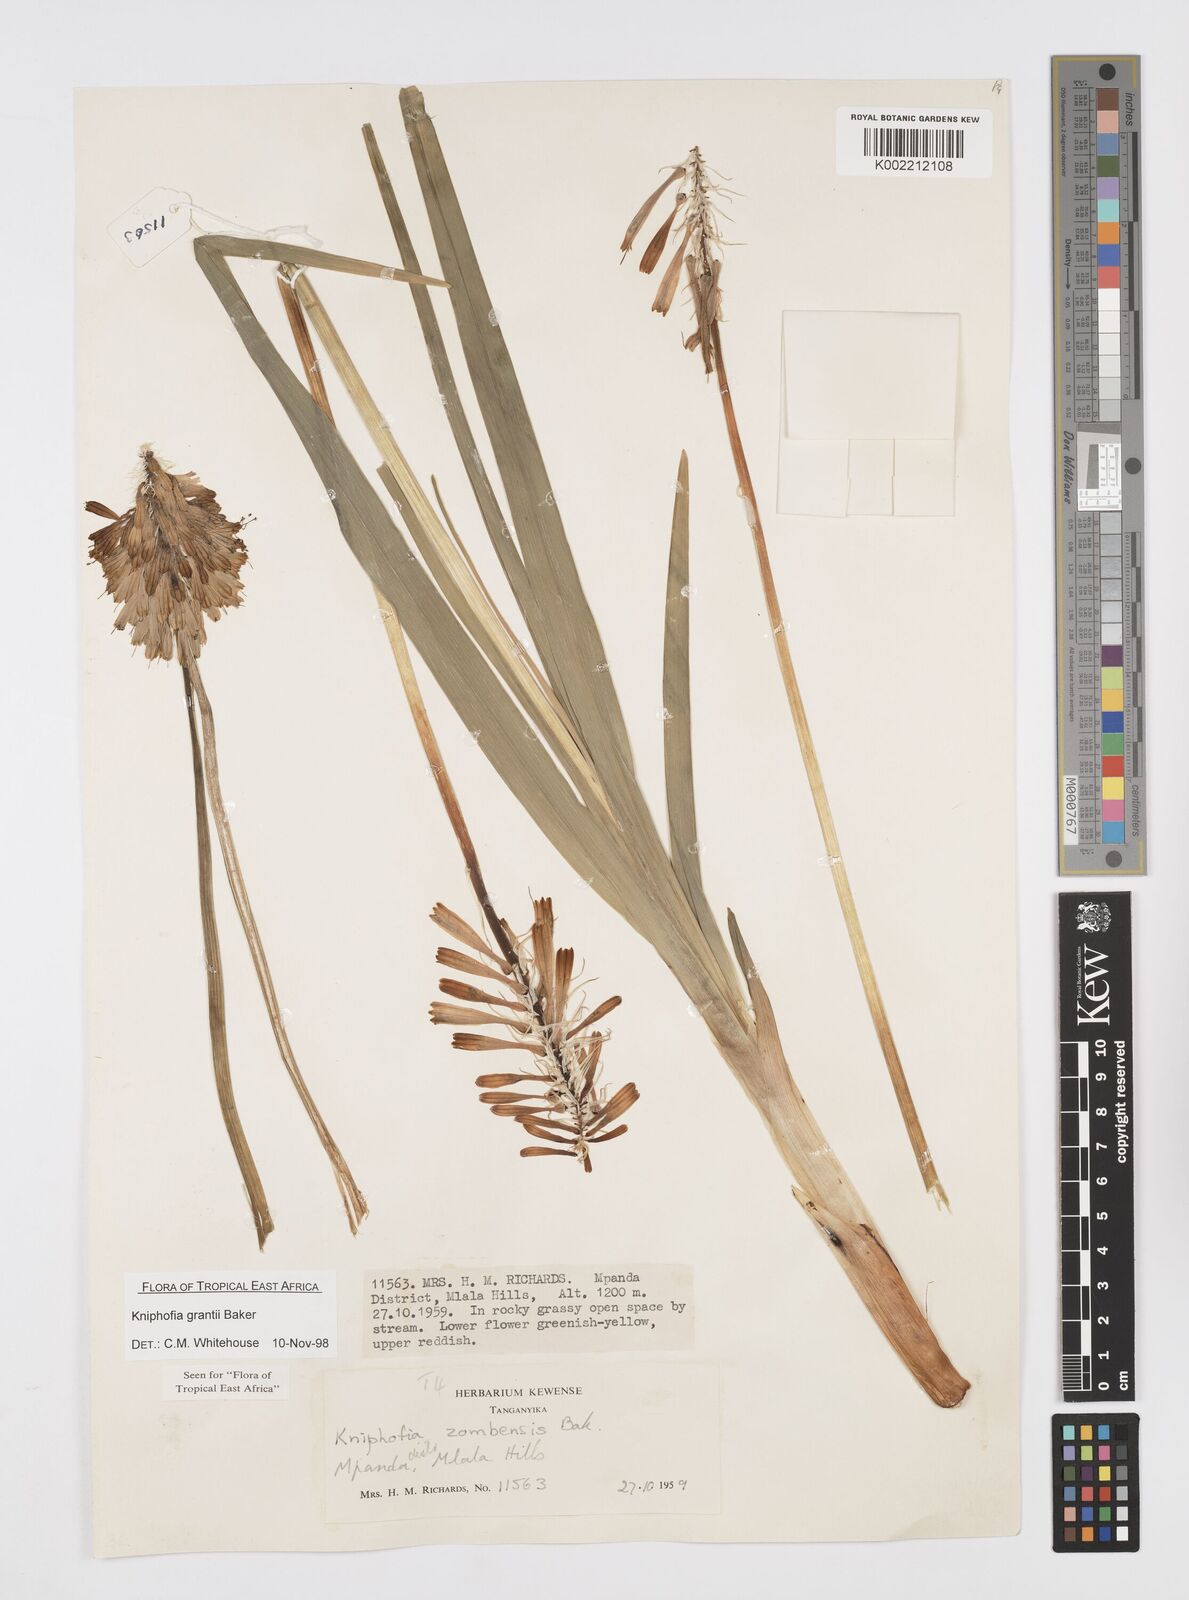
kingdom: Plantae
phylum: Tracheophyta
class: Liliopsida
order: Asparagales
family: Asphodelaceae
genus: Kniphofia
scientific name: Kniphofia grantii
